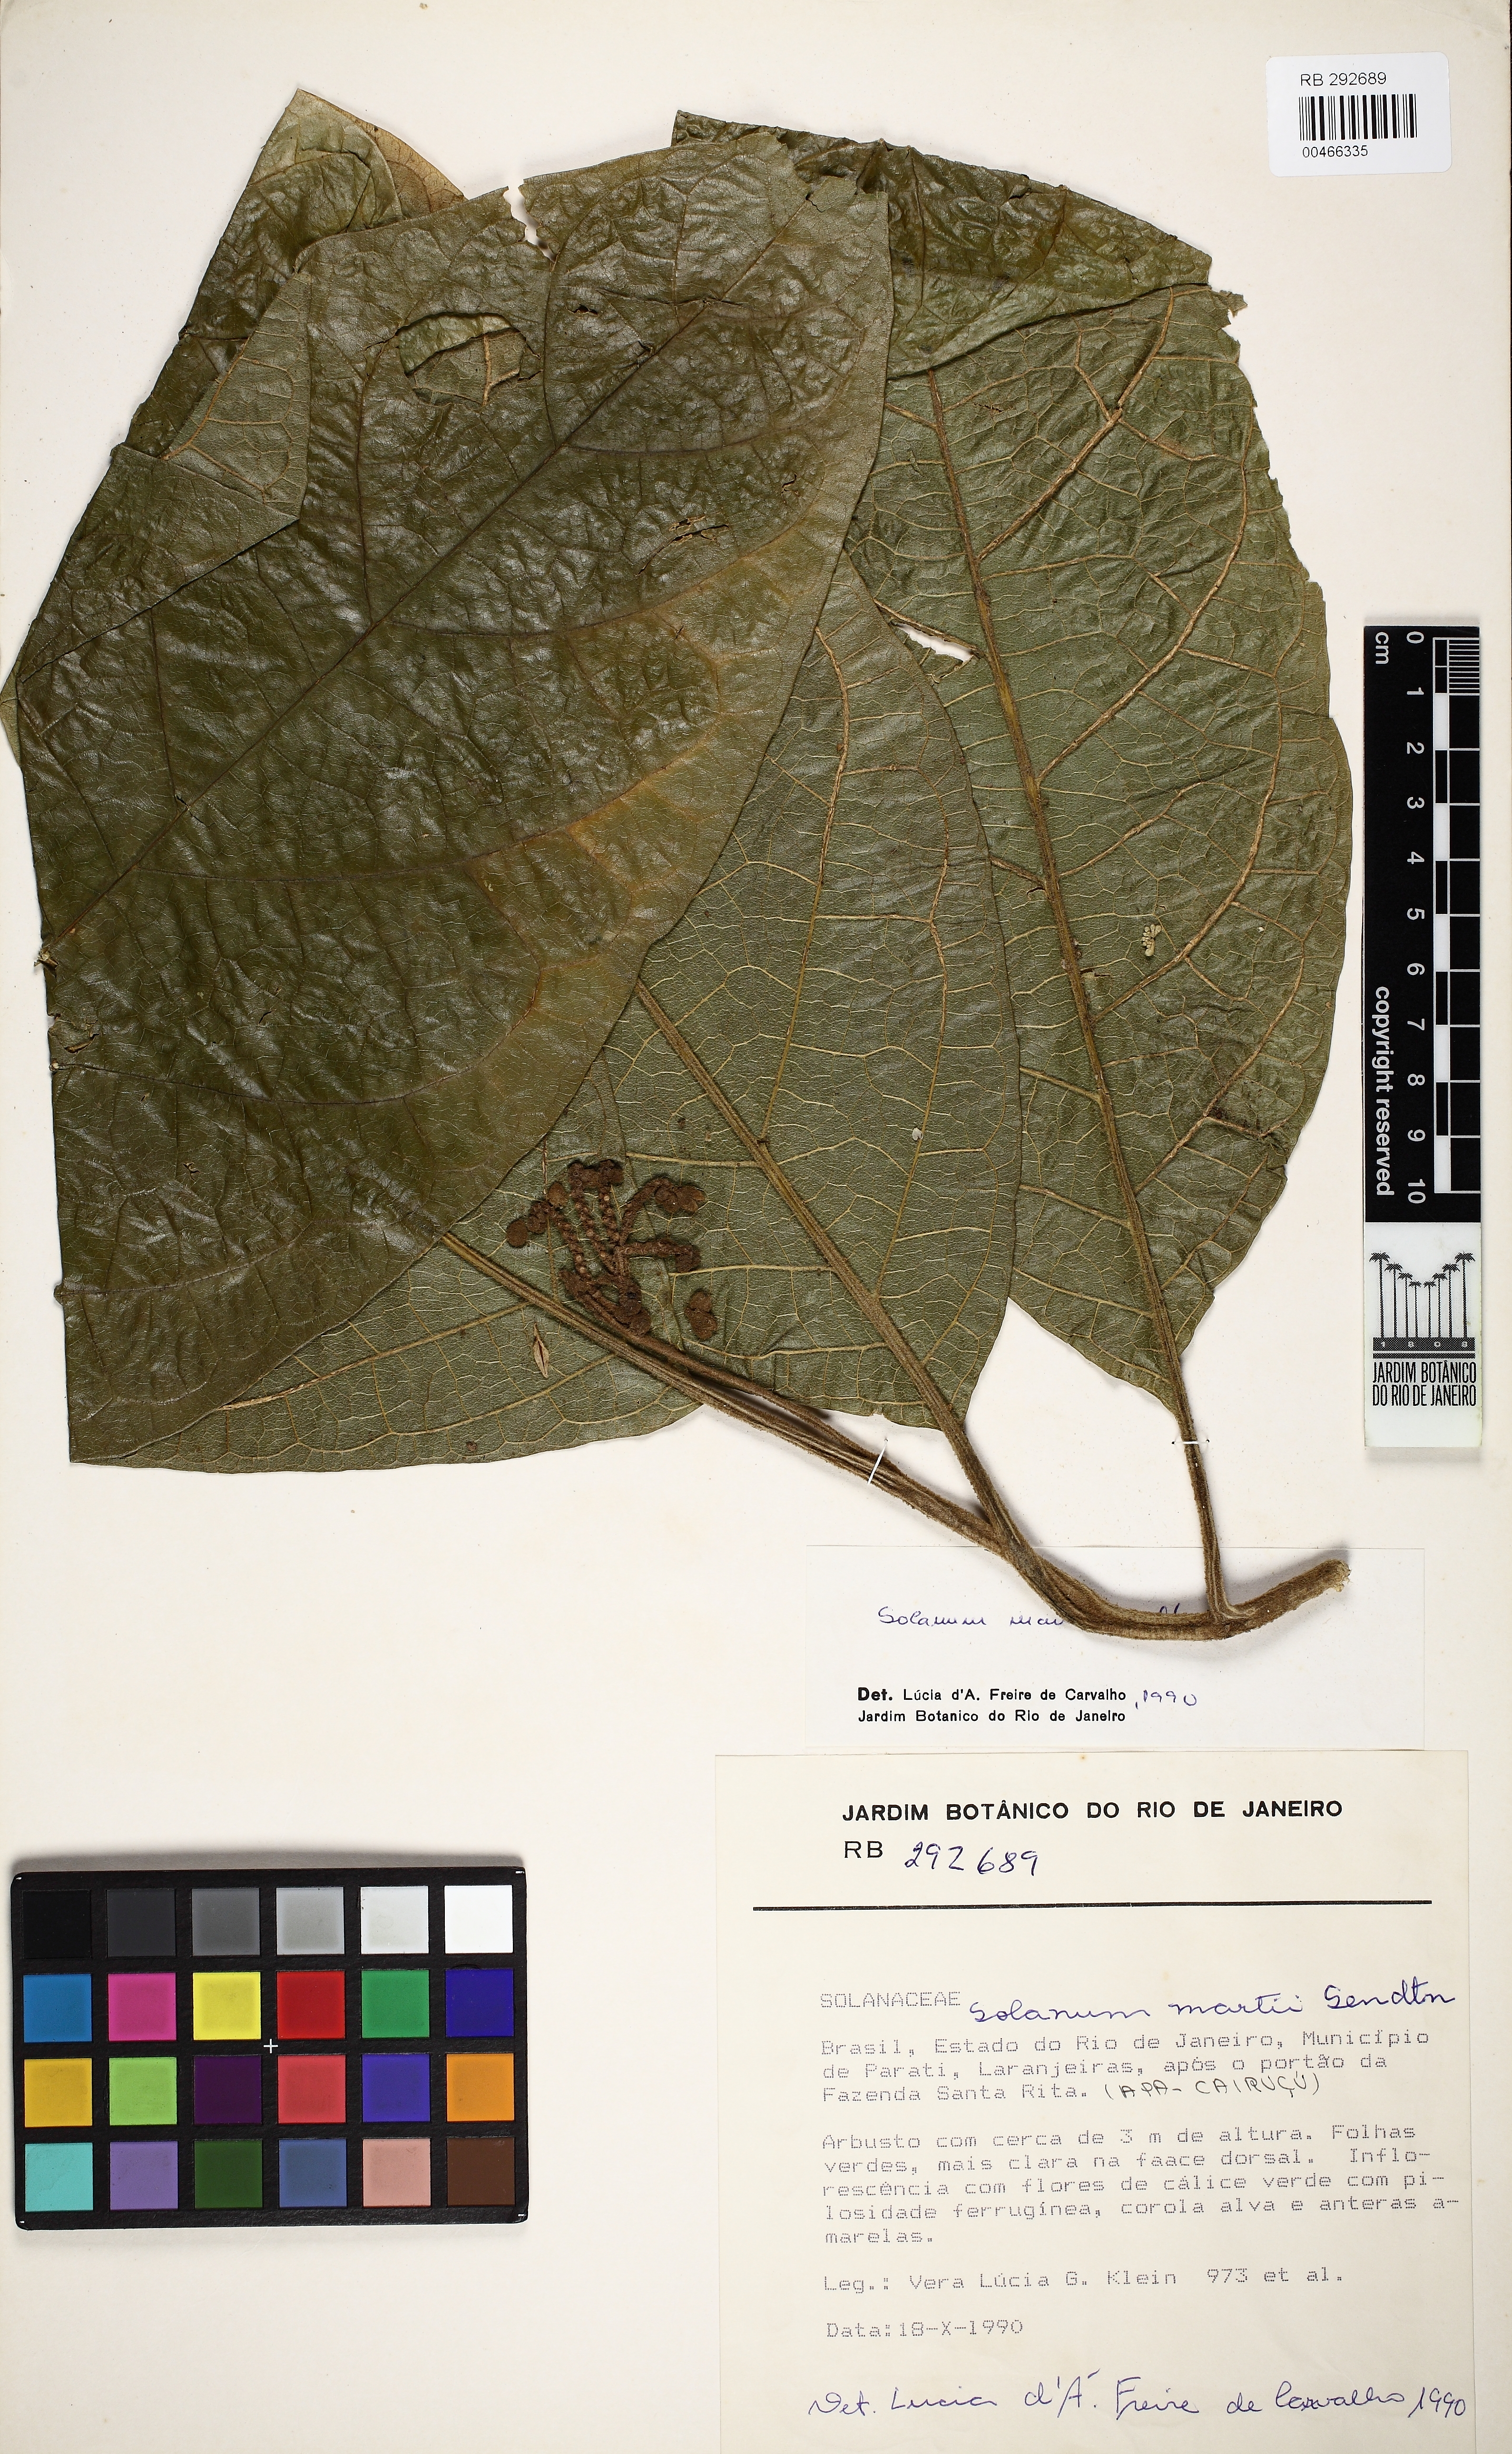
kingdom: Plantae
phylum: Tracheophyta
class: Magnoliopsida
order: Solanales
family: Solanaceae
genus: Solanum
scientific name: Solanum martii
